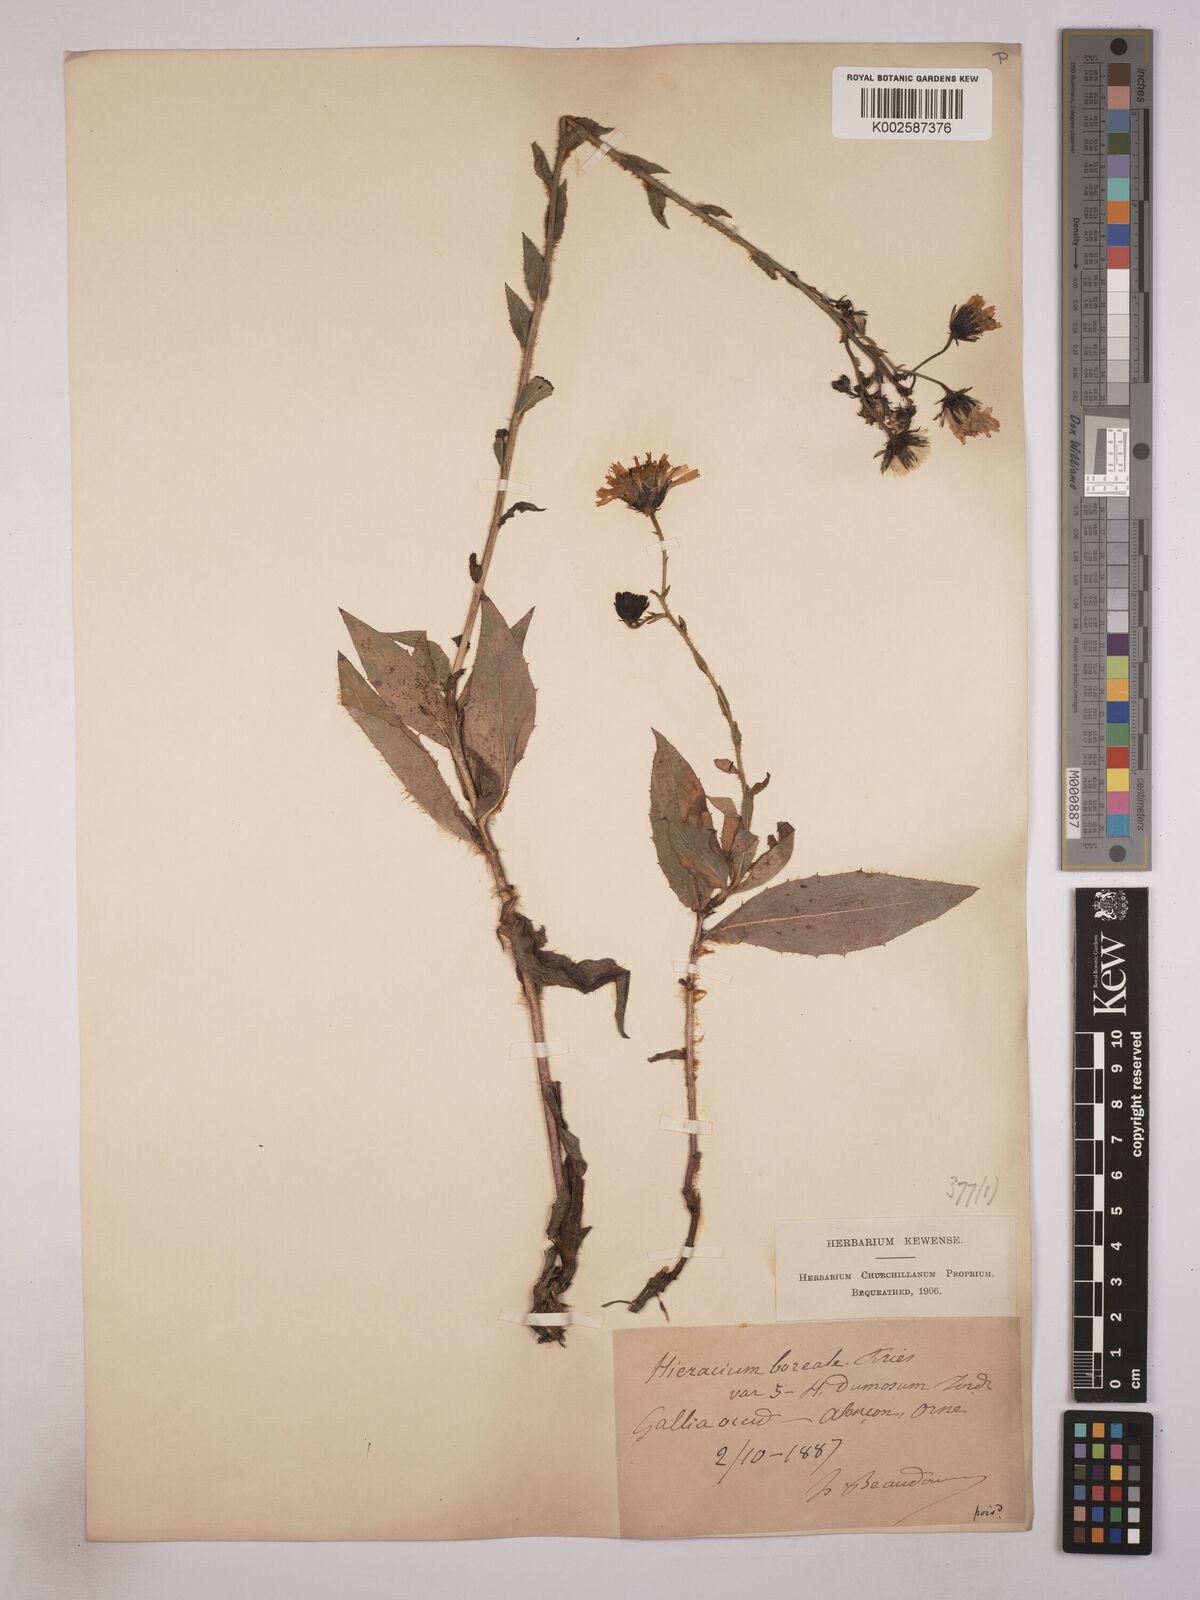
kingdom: Plantae
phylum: Tracheophyta
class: Magnoliopsida
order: Asterales
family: Asteraceae
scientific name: Asteraceae
